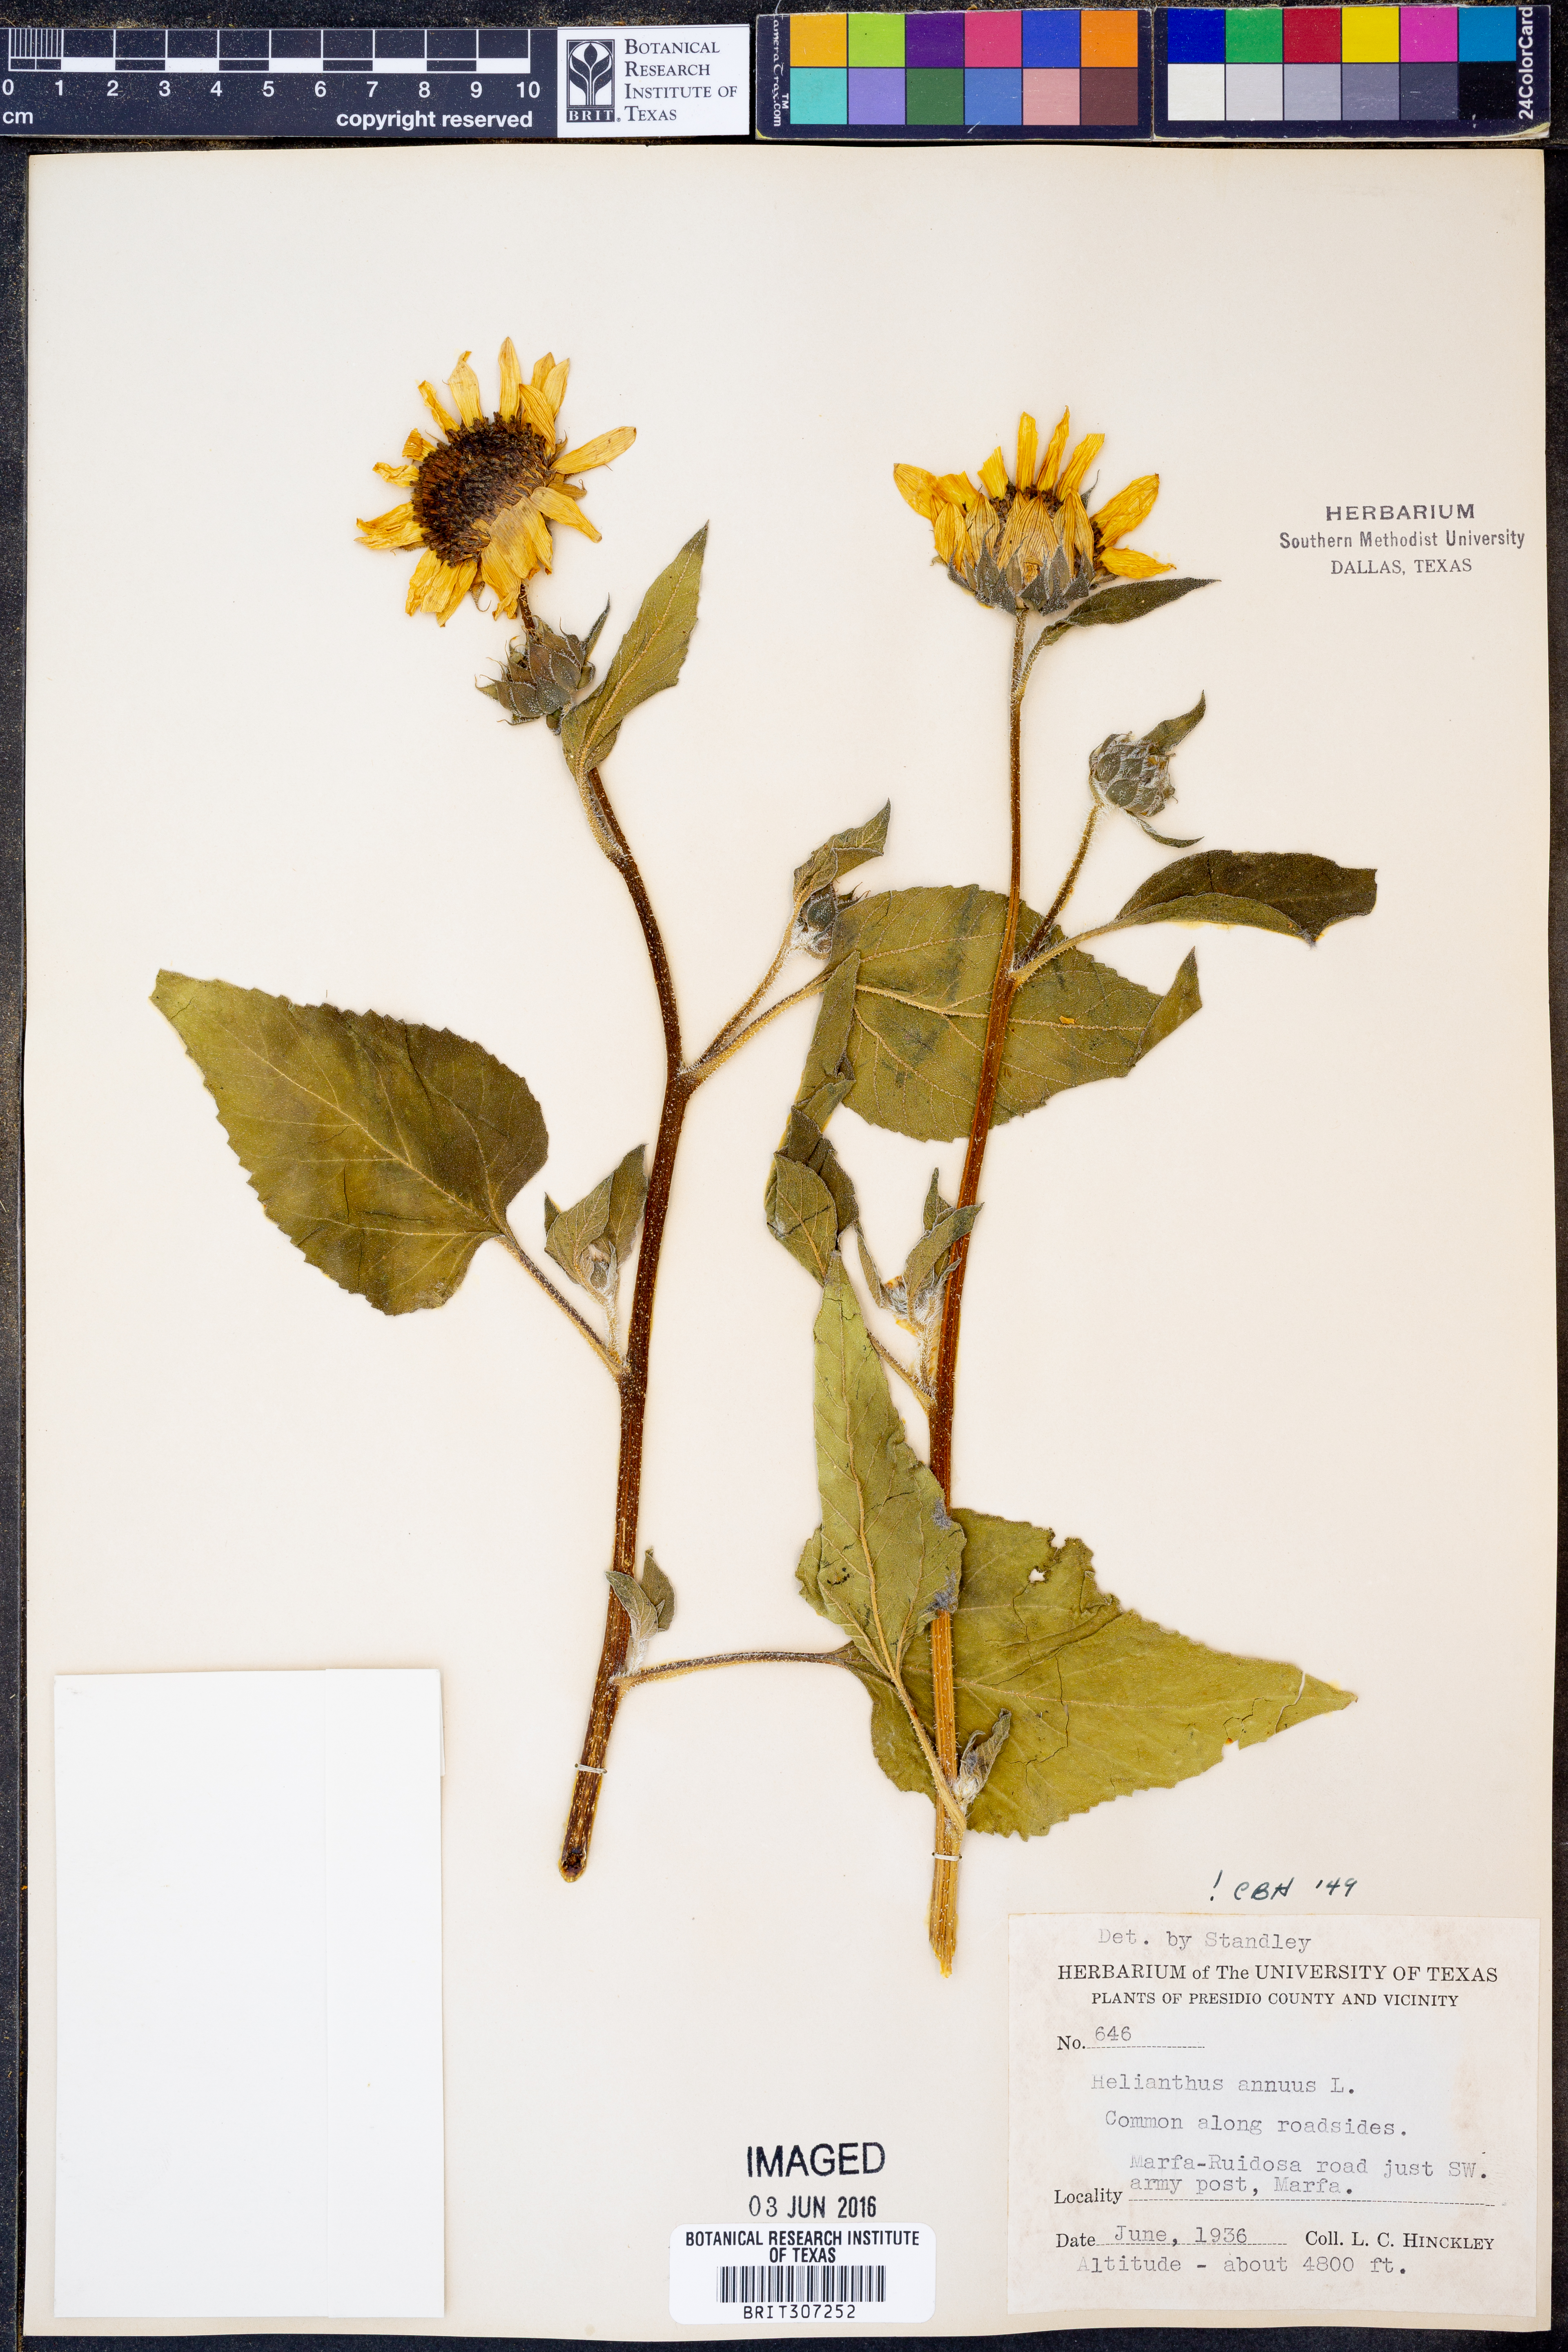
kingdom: Plantae
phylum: Tracheophyta
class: Magnoliopsida
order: Asterales
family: Asteraceae
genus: Helianthus
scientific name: Helianthus annuus
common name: Sunflower
